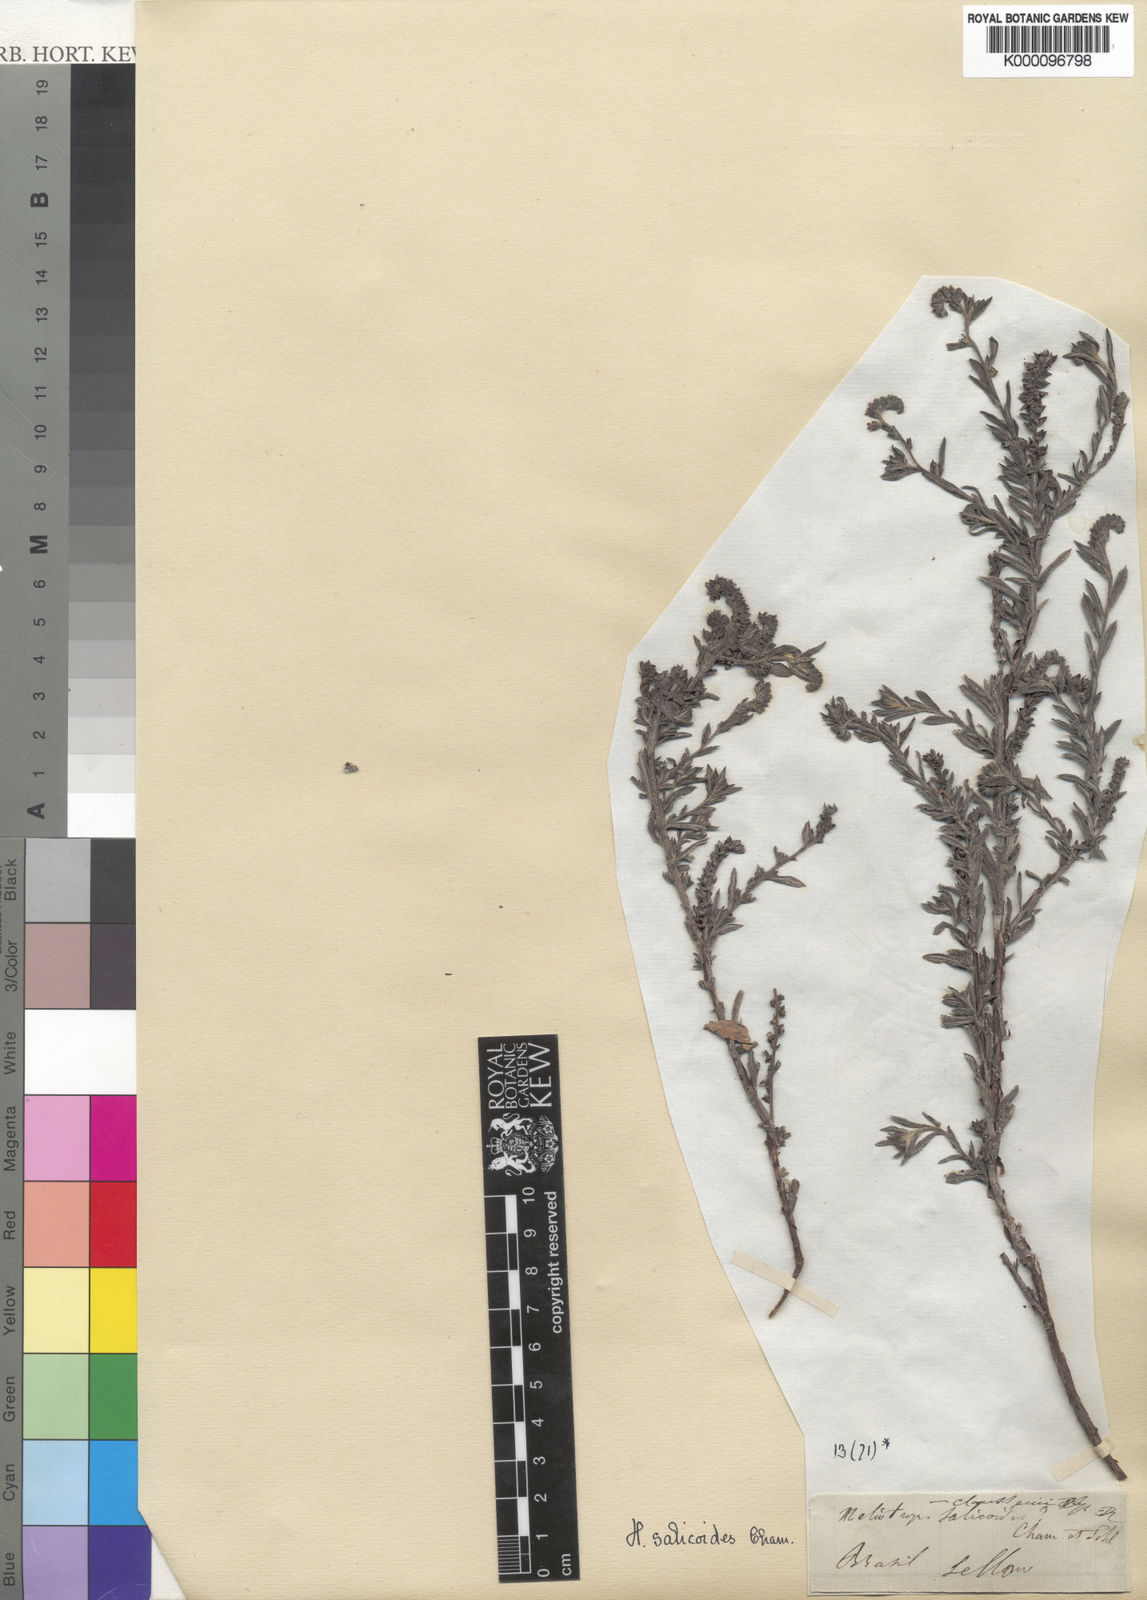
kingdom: Plantae
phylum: Tracheophyta
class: Magnoliopsida
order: Boraginales
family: Heliotropiaceae
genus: Heliotropium
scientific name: Heliotropium
